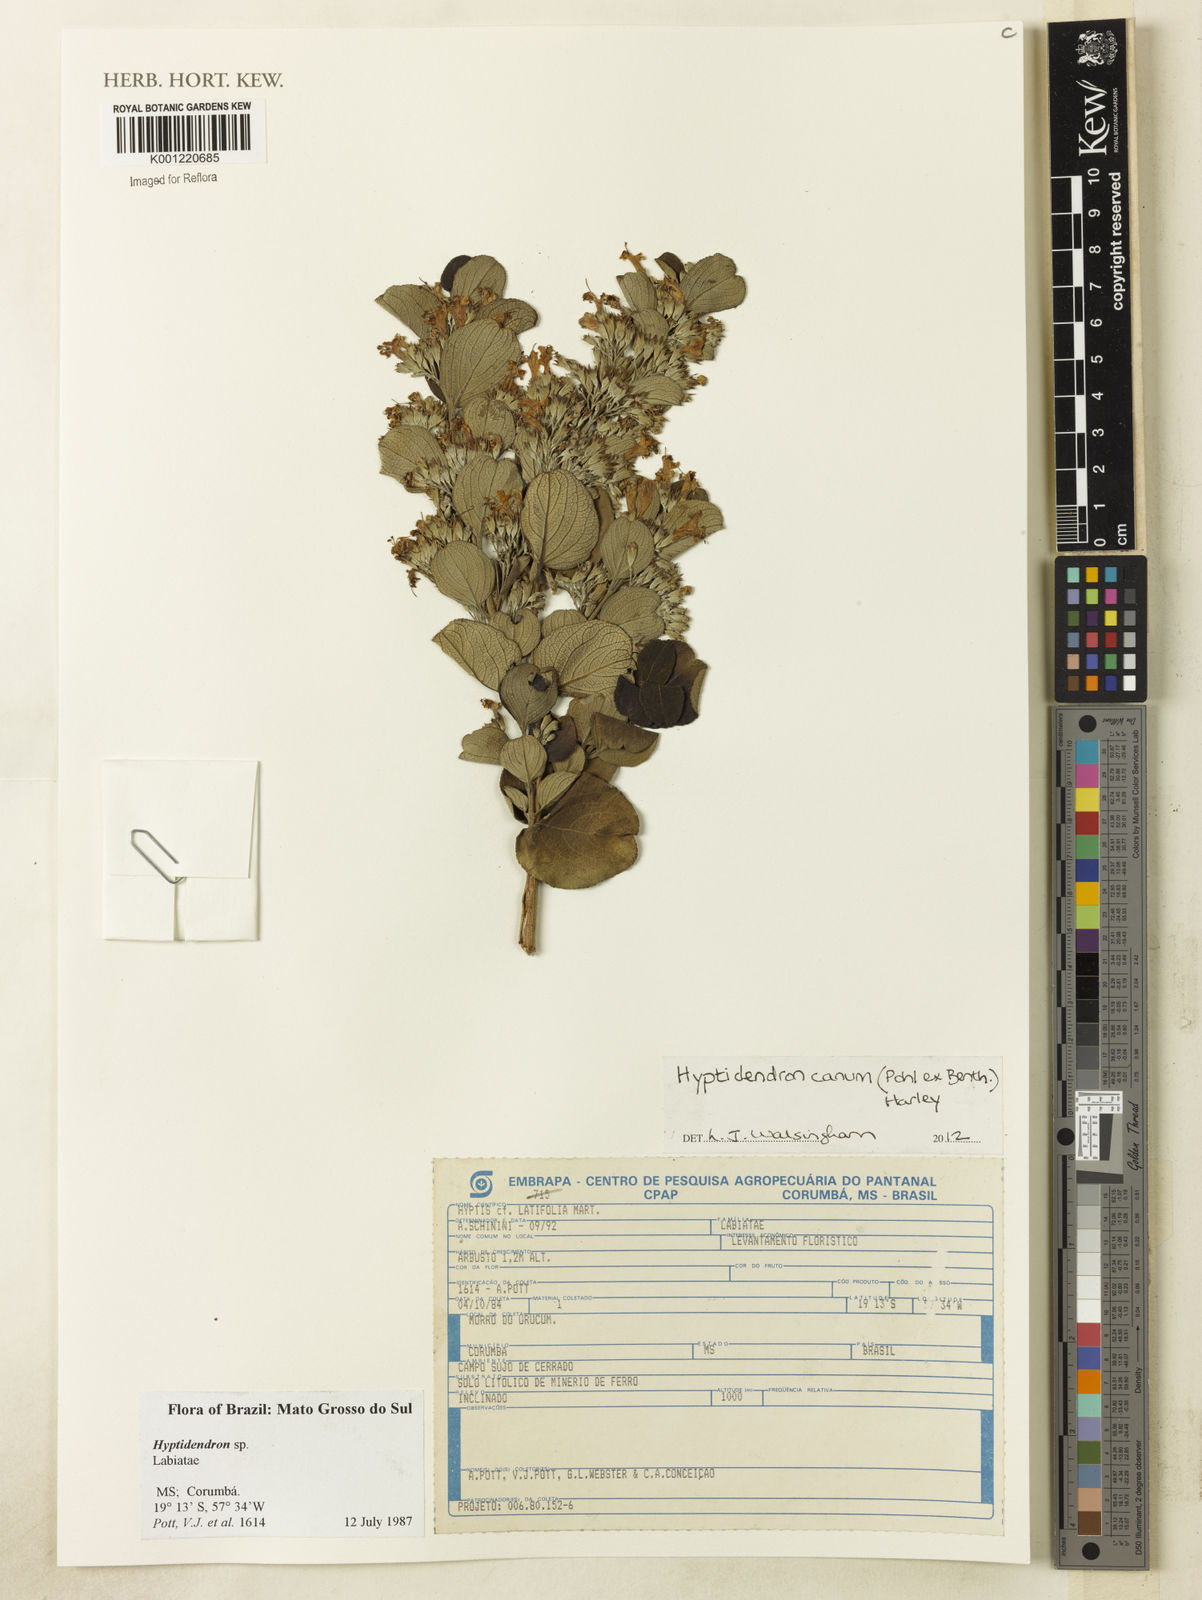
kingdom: Plantae
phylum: Tracheophyta
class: Magnoliopsida
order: Lamiales
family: Lamiaceae
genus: Hyptidendron
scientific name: Hyptidendron canum
